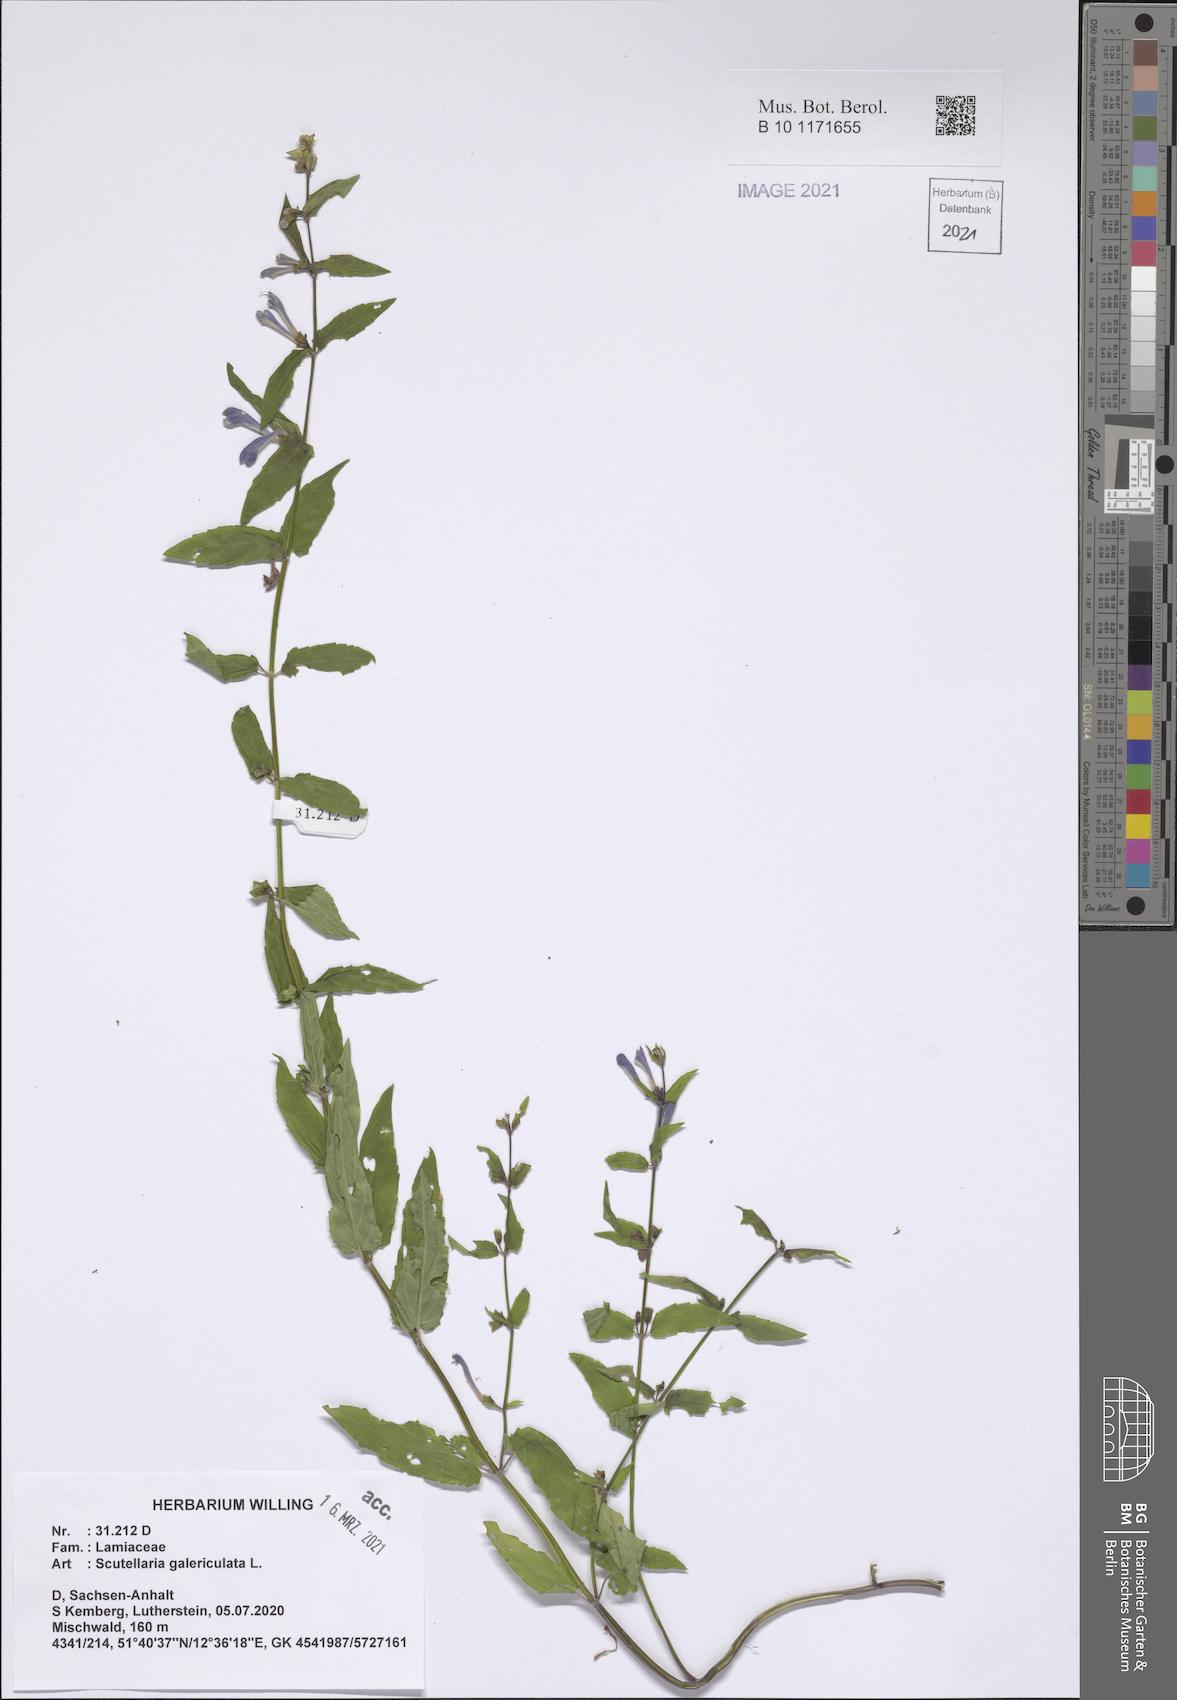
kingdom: Plantae
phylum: Tracheophyta
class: Magnoliopsida
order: Lamiales
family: Lamiaceae
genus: Scutellaria
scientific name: Scutellaria galericulata
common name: Skullcap
